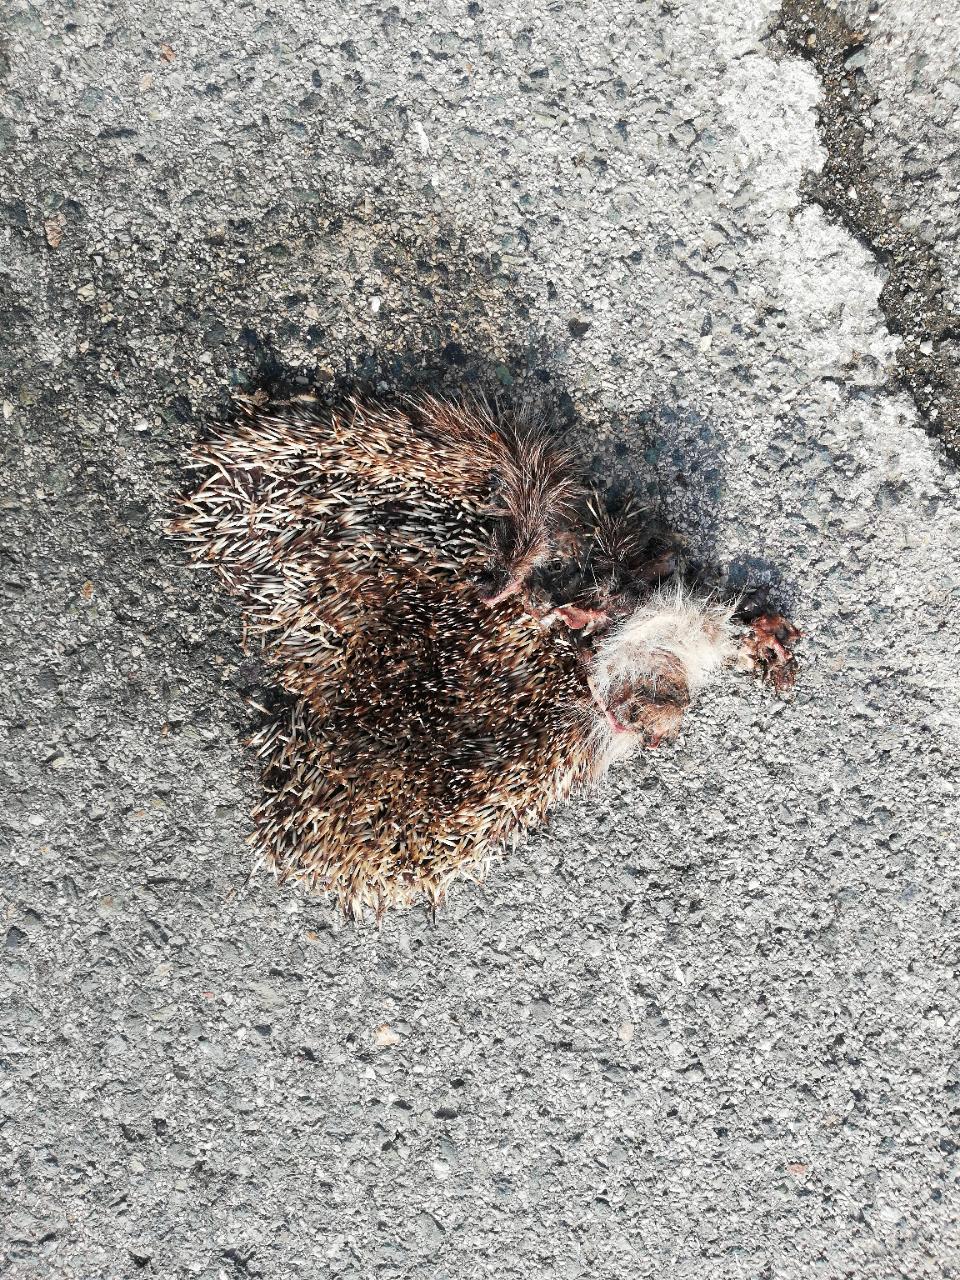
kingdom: Animalia
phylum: Chordata
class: Mammalia
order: Erinaceomorpha
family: Erinaceidae
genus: Erinaceus
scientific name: Erinaceus
